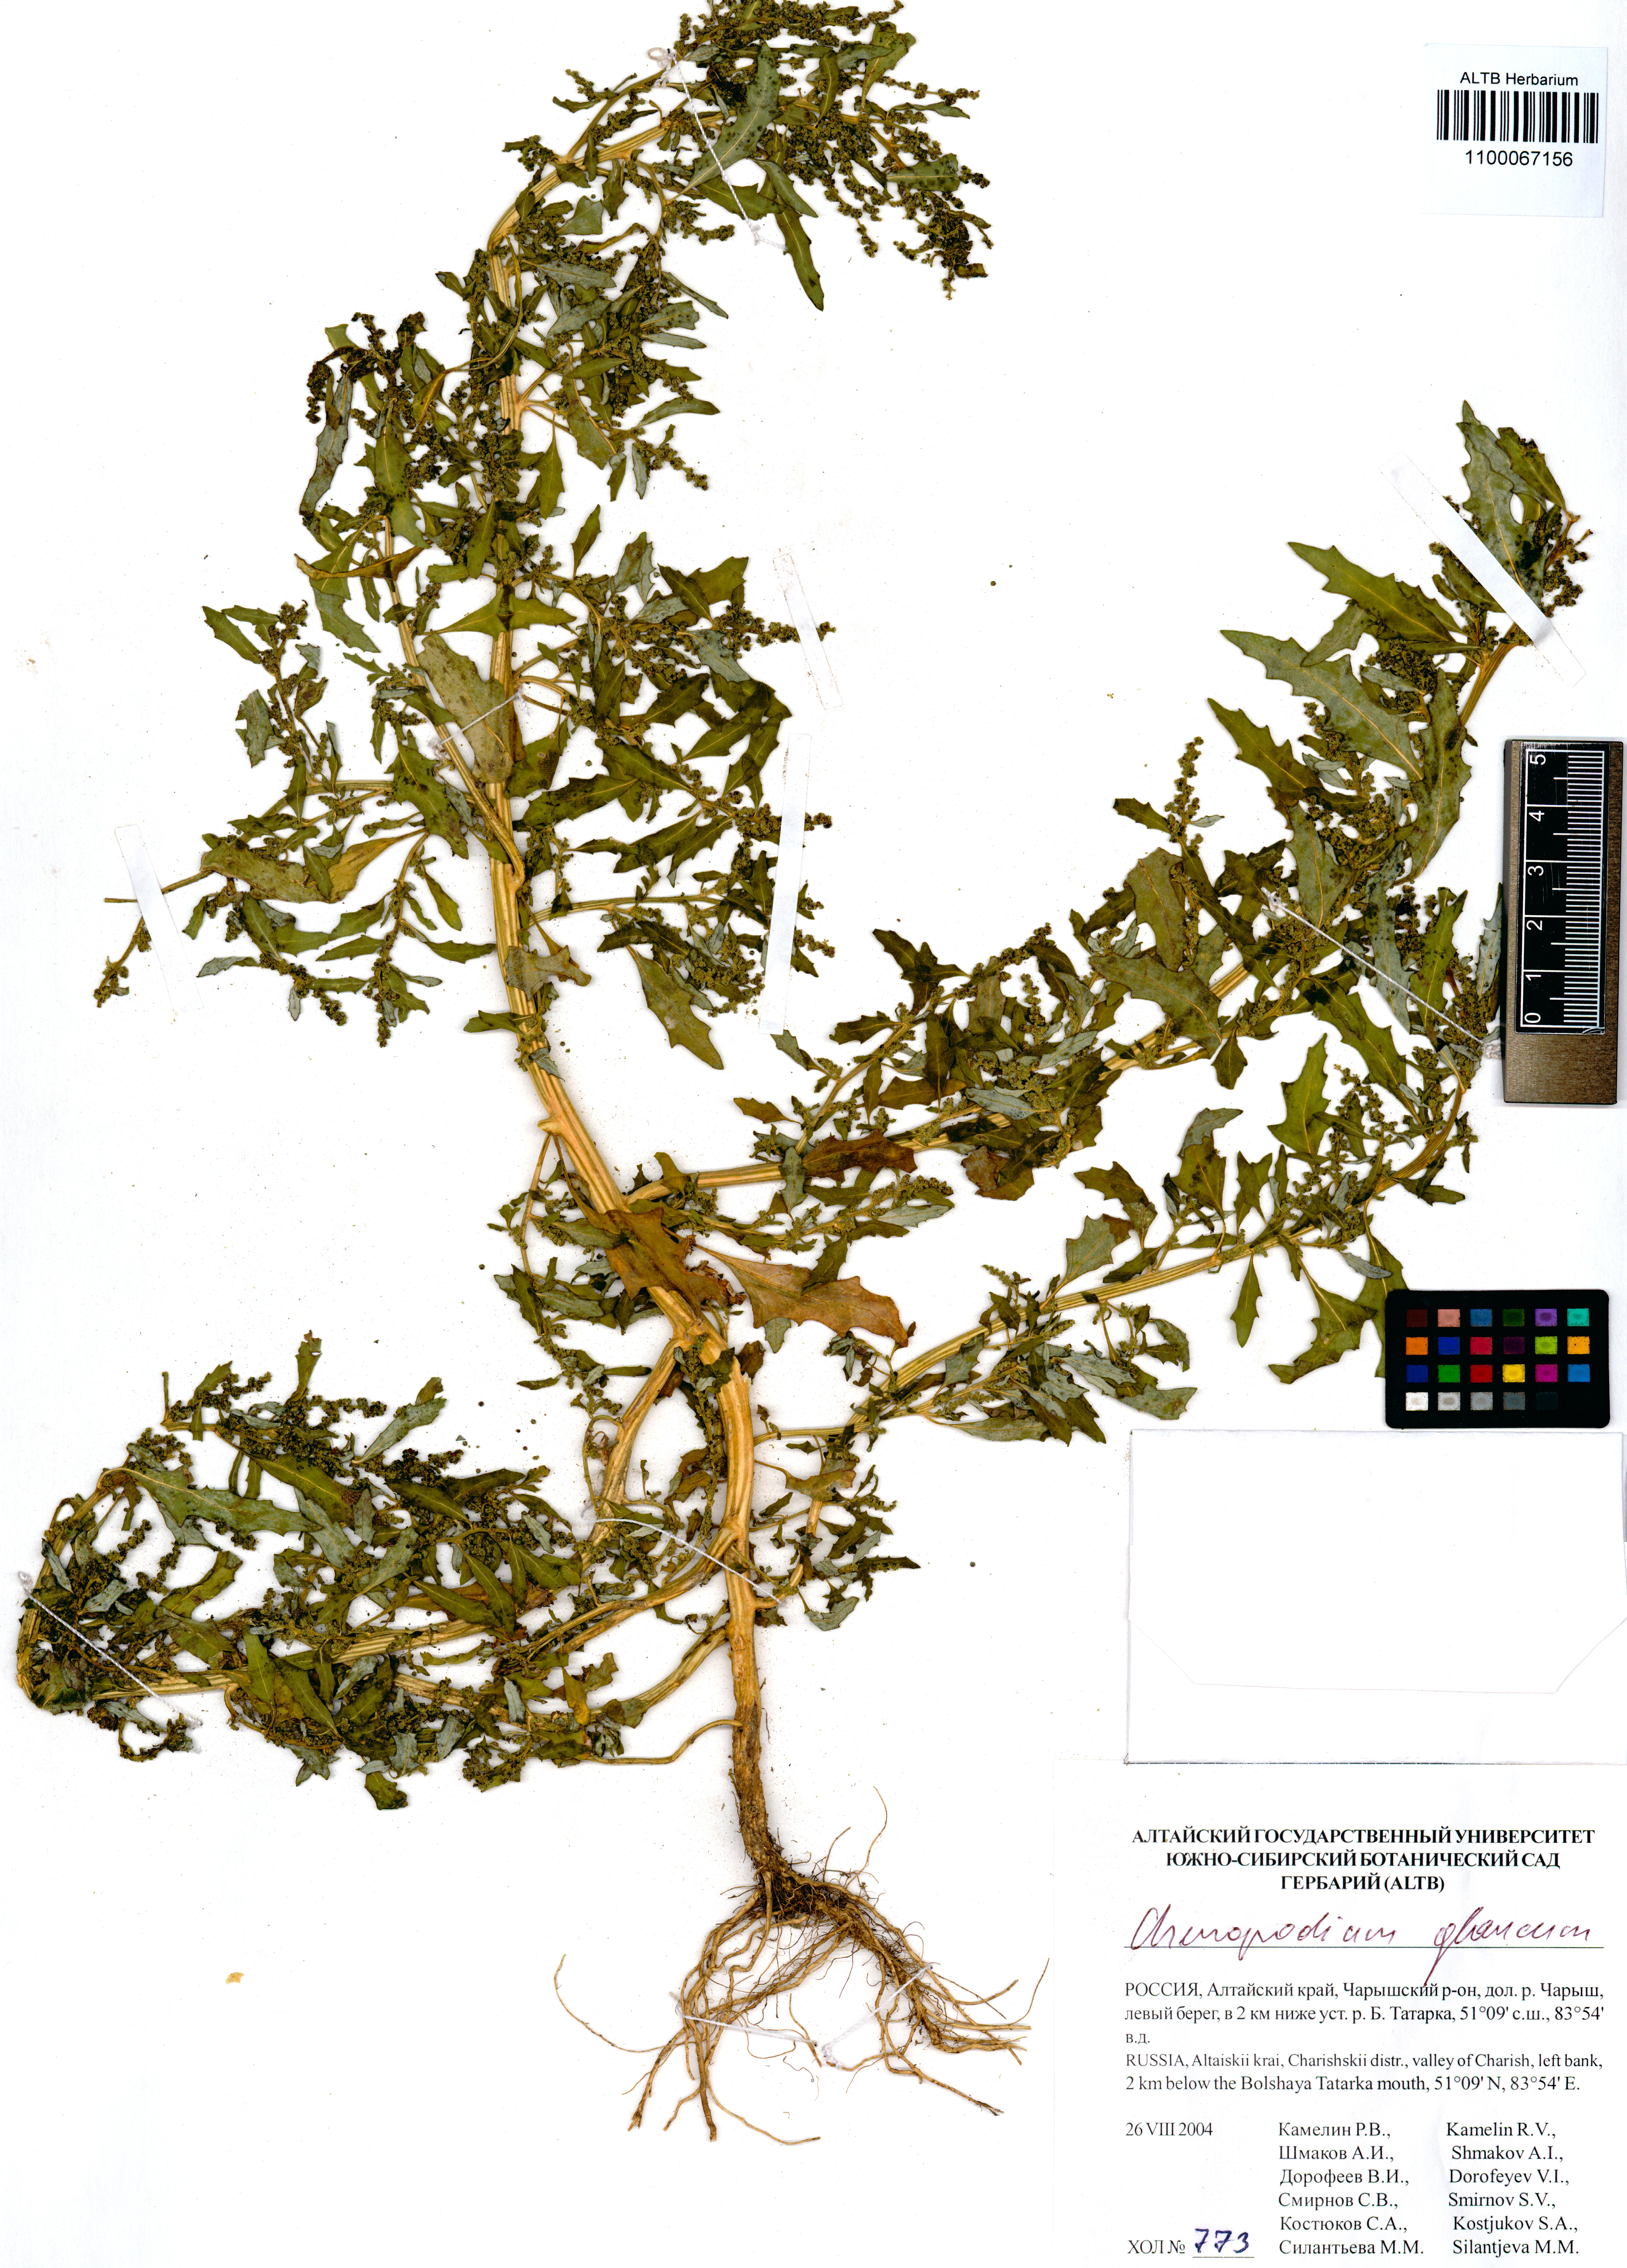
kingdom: Plantae
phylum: Tracheophyta
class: Magnoliopsida
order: Caryophyllales
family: Amaranthaceae
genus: Oxybasis
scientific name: Oxybasis glauca
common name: Glaucous goosefoot
